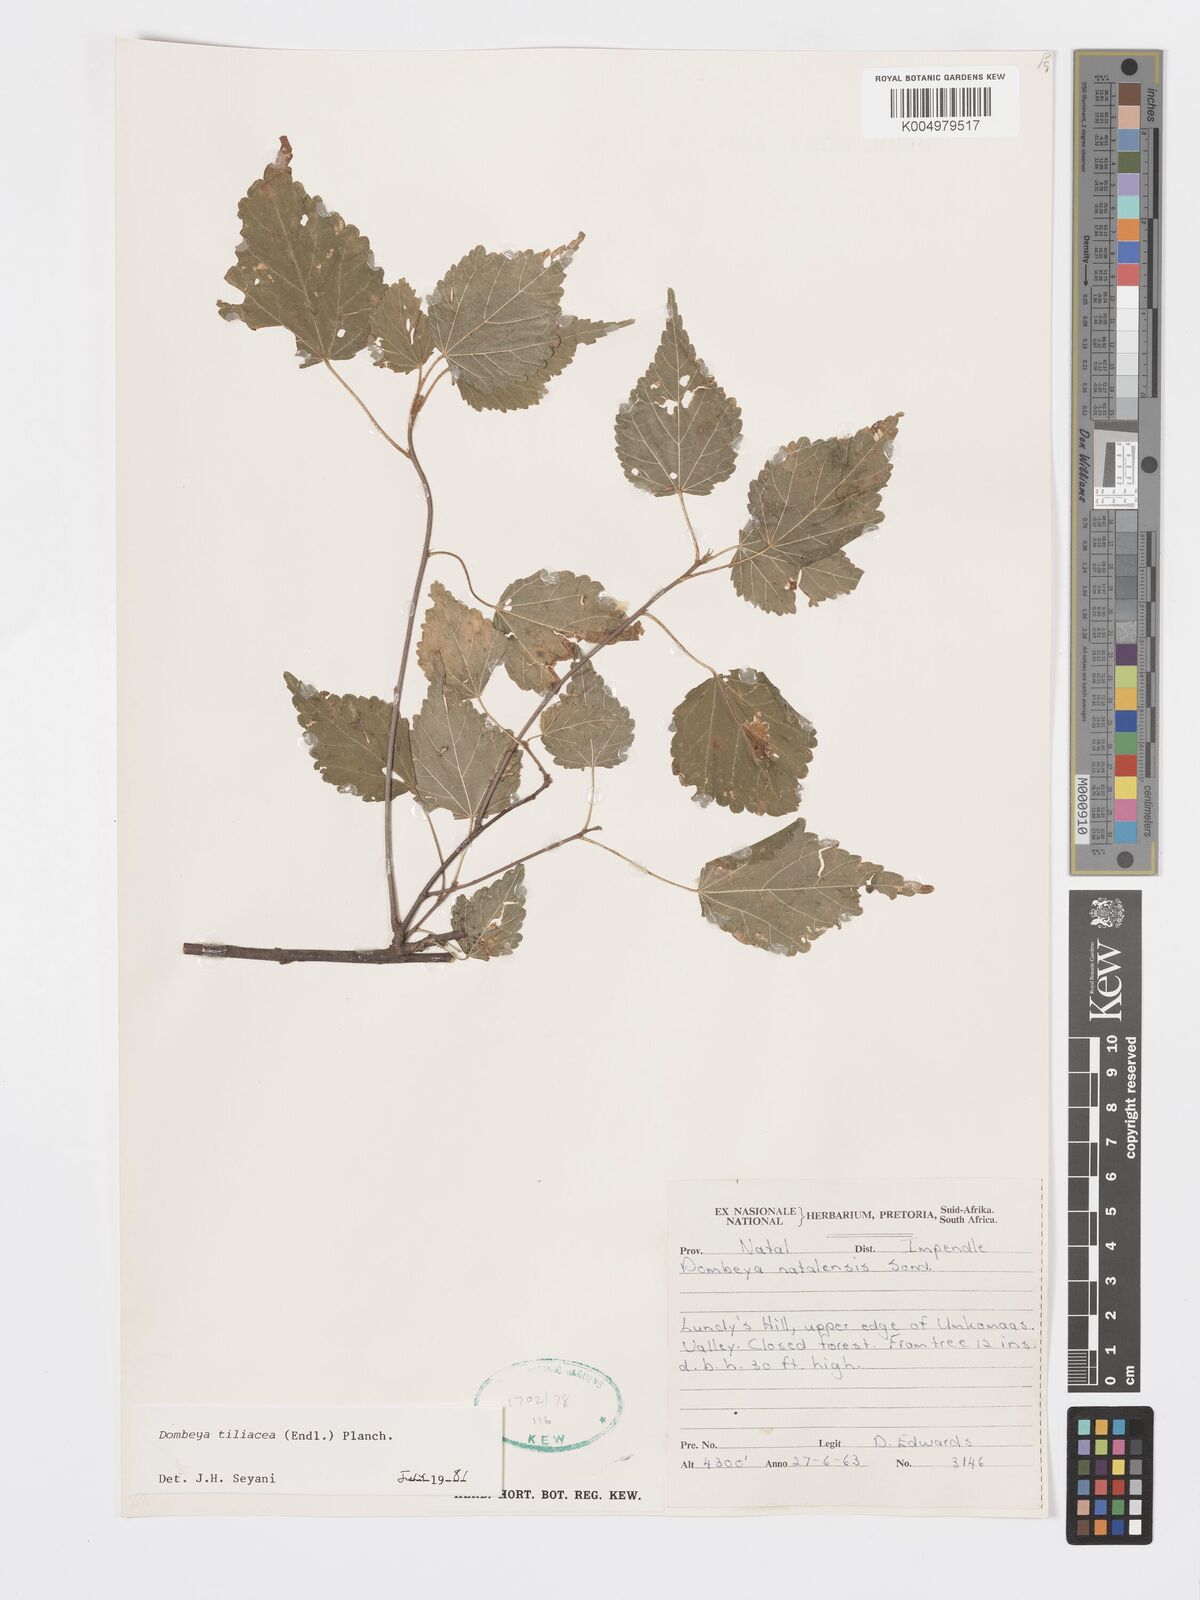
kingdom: Plantae
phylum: Tracheophyta
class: Magnoliopsida
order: Malvales
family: Malvaceae
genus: Dombeya
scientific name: Dombeya tiliacea
